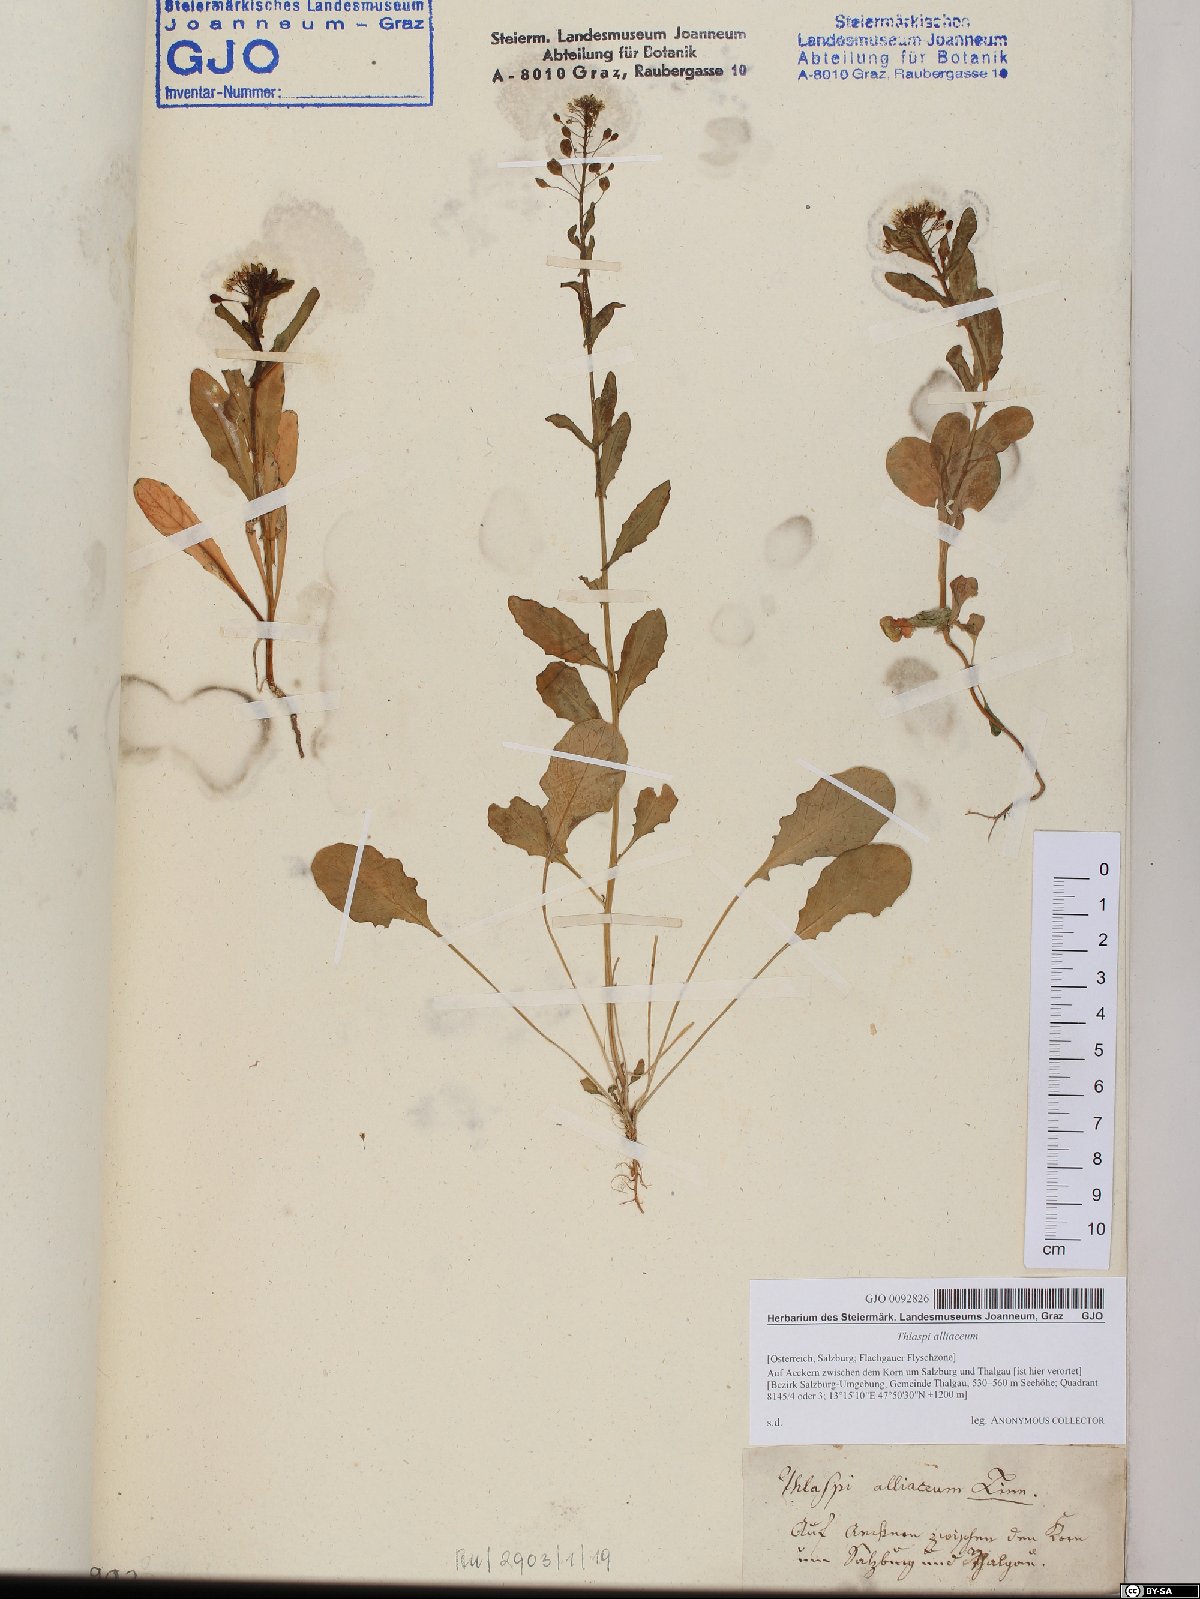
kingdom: Plantae
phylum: Tracheophyta
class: Magnoliopsida
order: Brassicales
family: Brassicaceae
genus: Mummenhoffia
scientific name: Mummenhoffia alliacea
